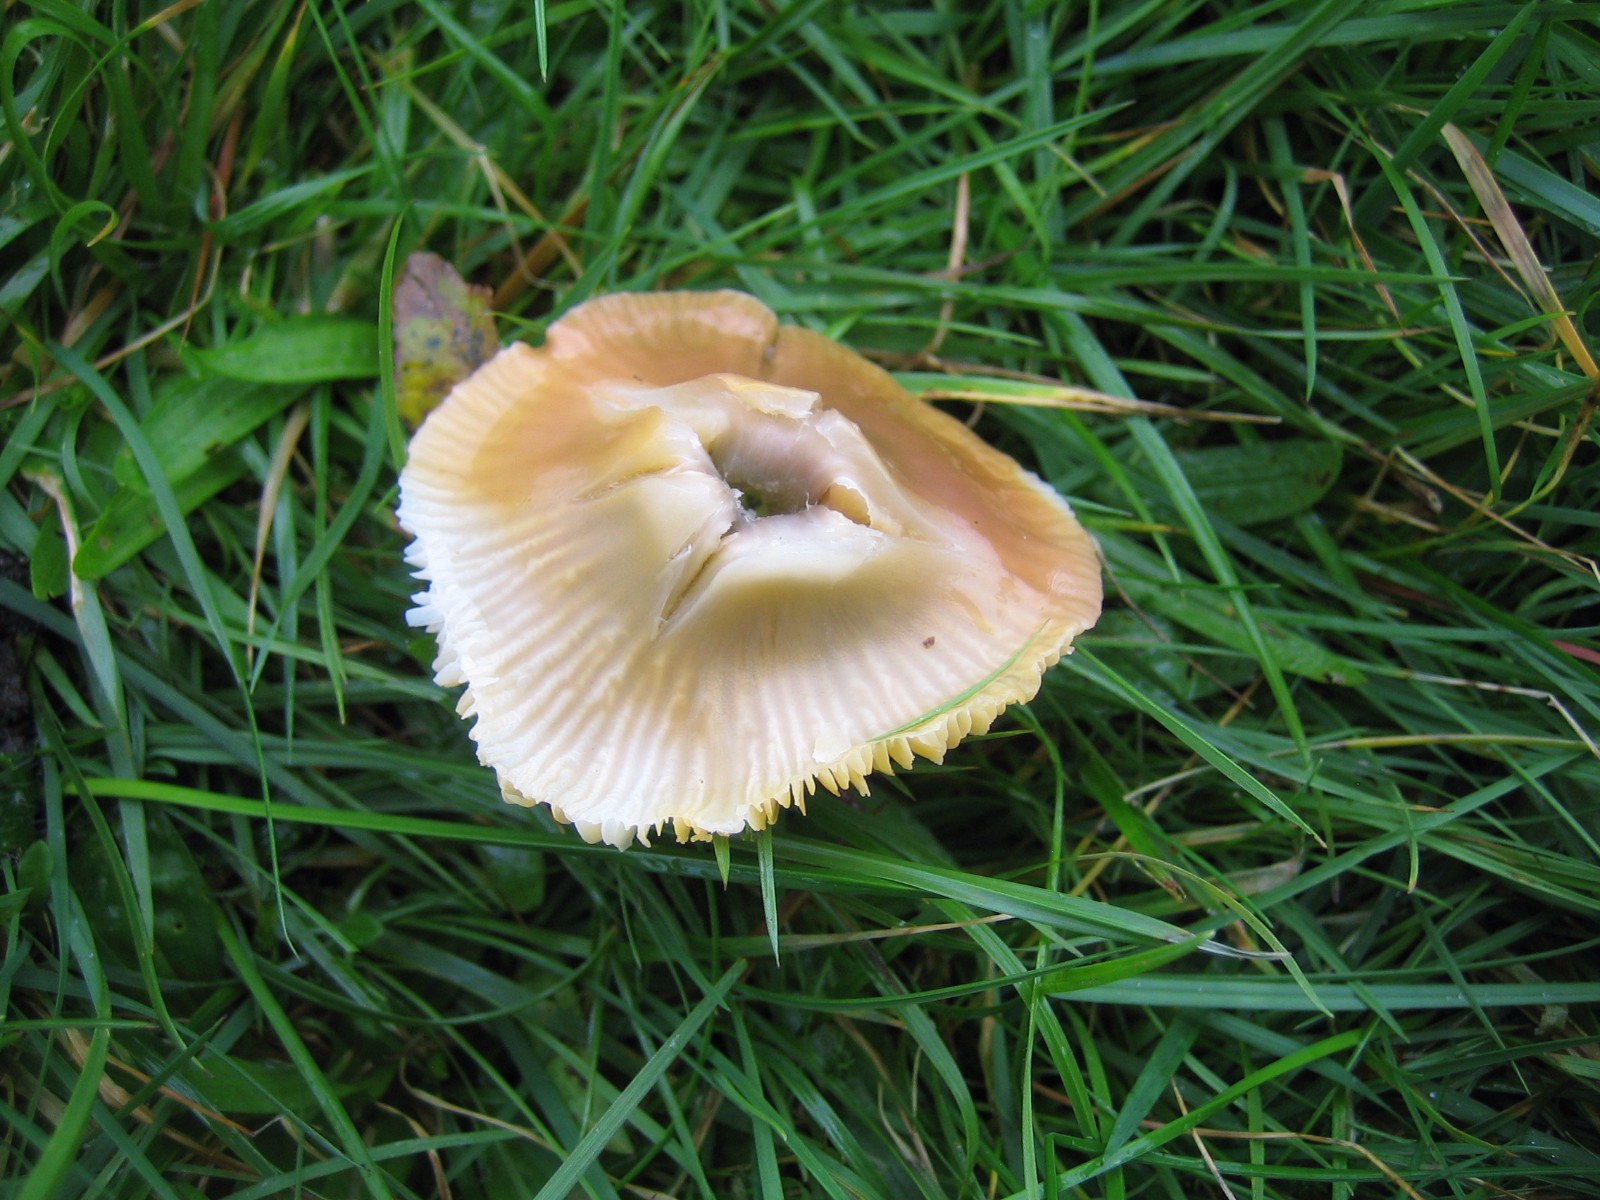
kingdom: Fungi
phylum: Basidiomycota
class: Agaricomycetes
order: Agaricales
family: Hygrophoraceae
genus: Gliophorus
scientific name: Gliophorus psittacinus
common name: papegøje-vokshat
